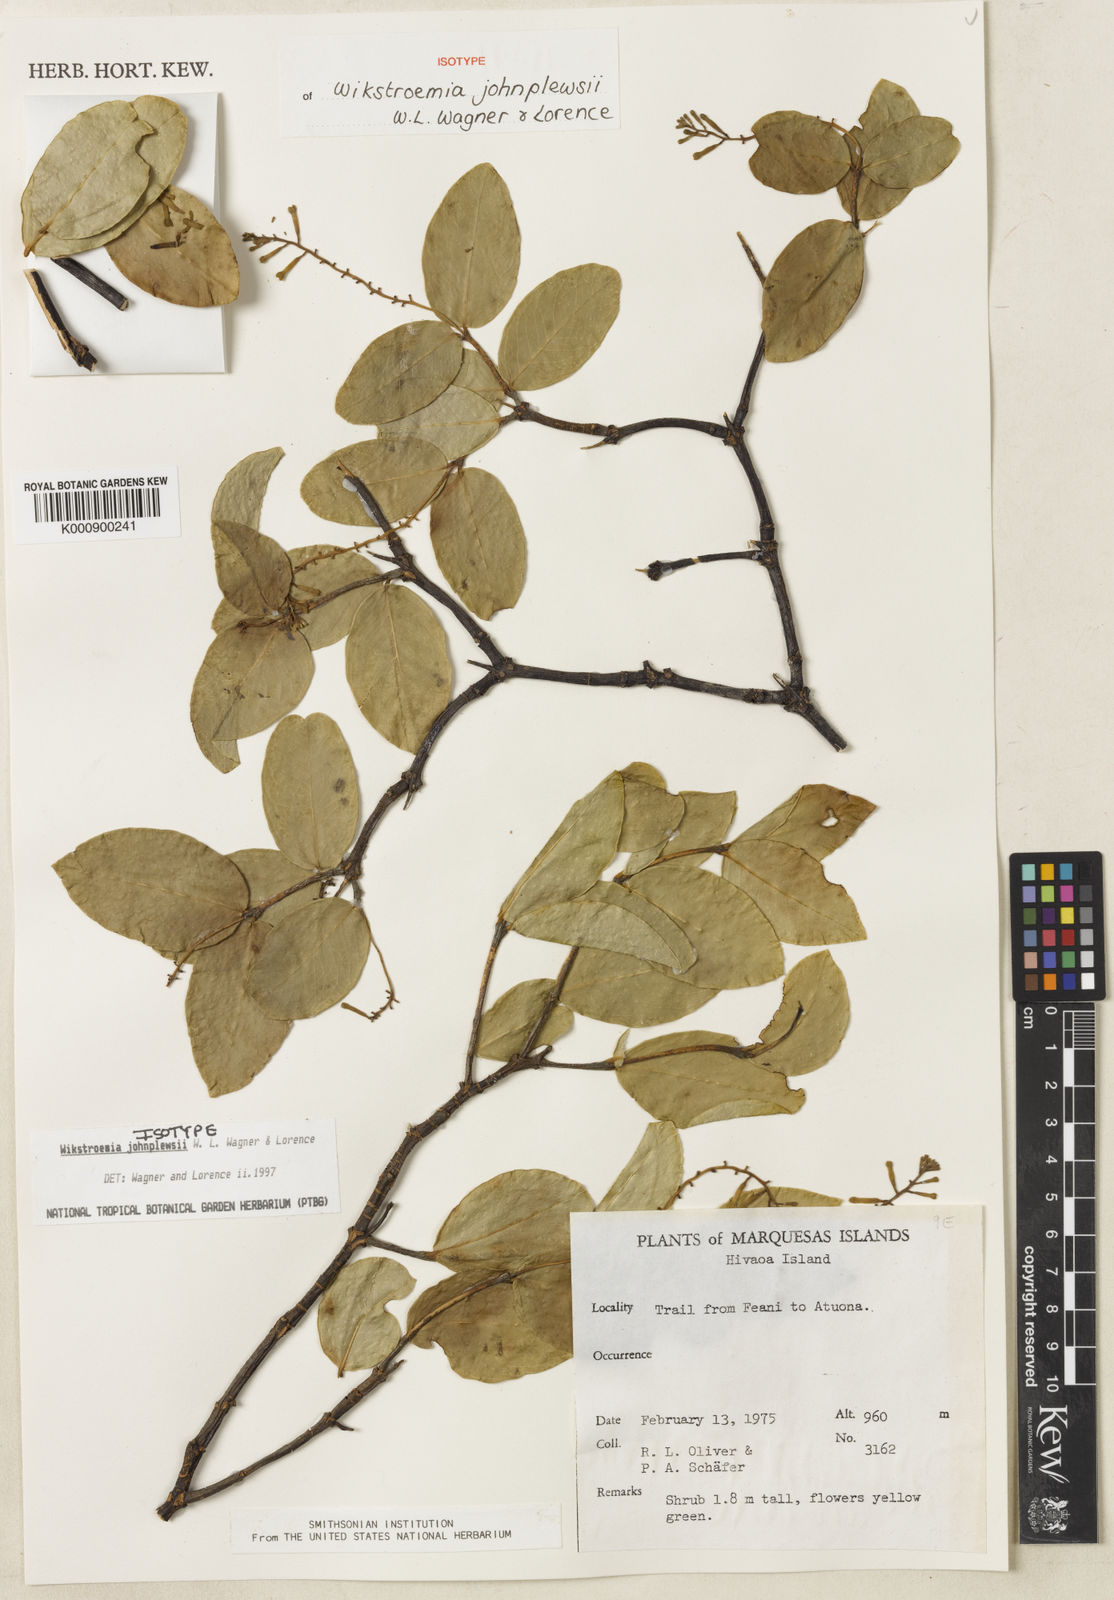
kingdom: Plantae
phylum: Tracheophyta
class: Magnoliopsida
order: Malvales
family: Thymelaeaceae
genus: Wikstroemia
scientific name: Wikstroemia johnplewsii
